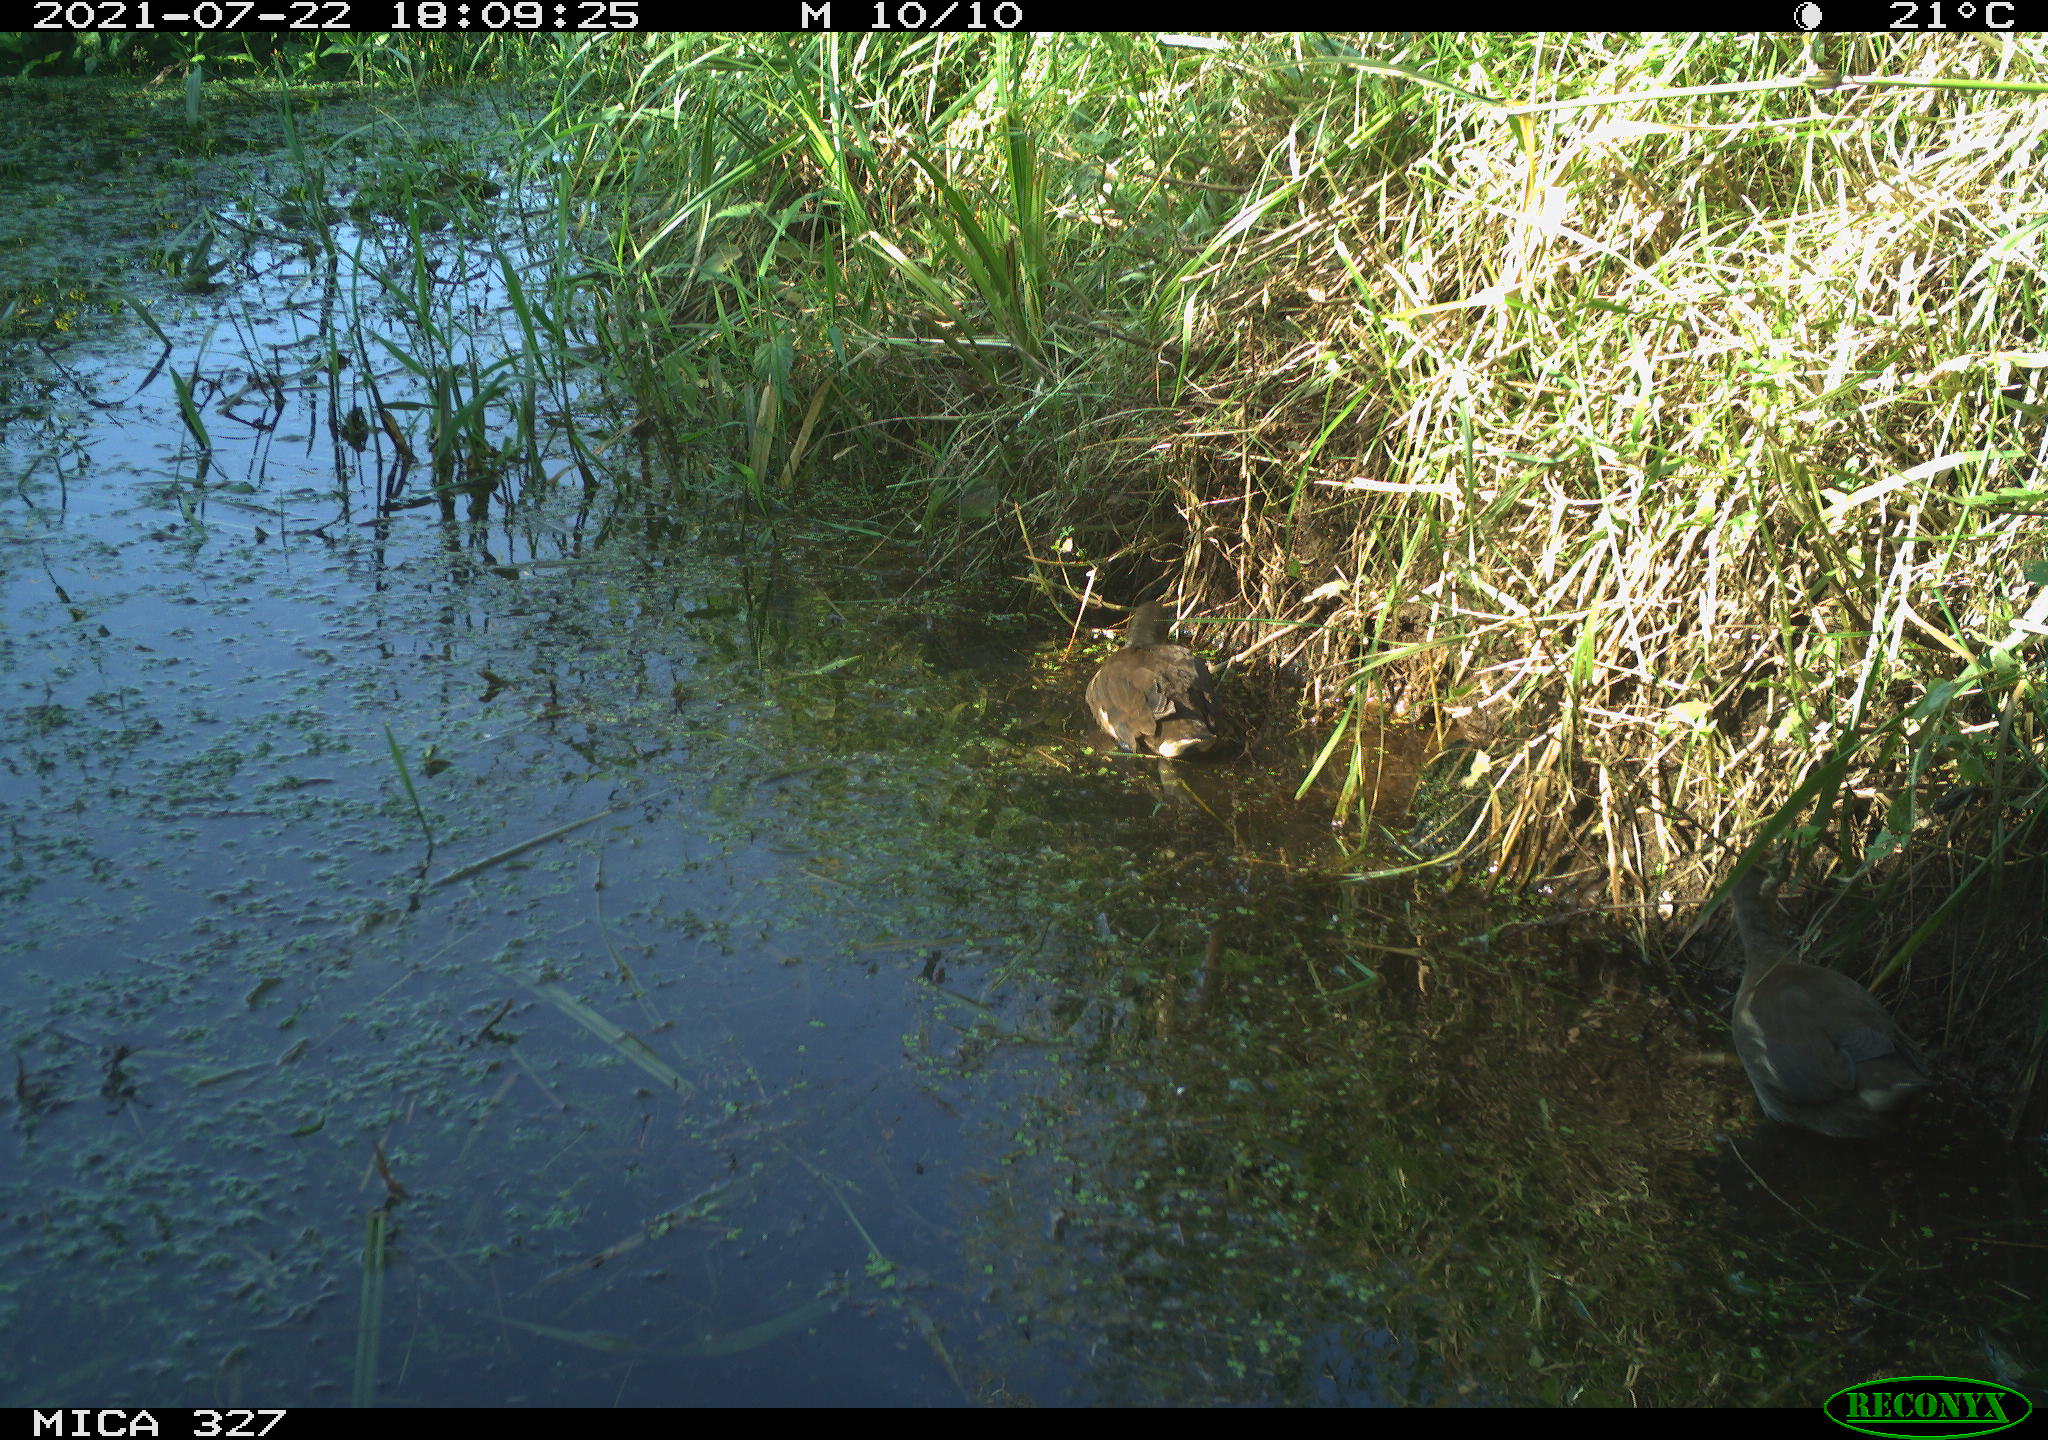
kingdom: Animalia
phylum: Chordata
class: Aves
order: Gruiformes
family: Rallidae
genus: Gallinula
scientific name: Gallinula chloropus
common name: Common moorhen
